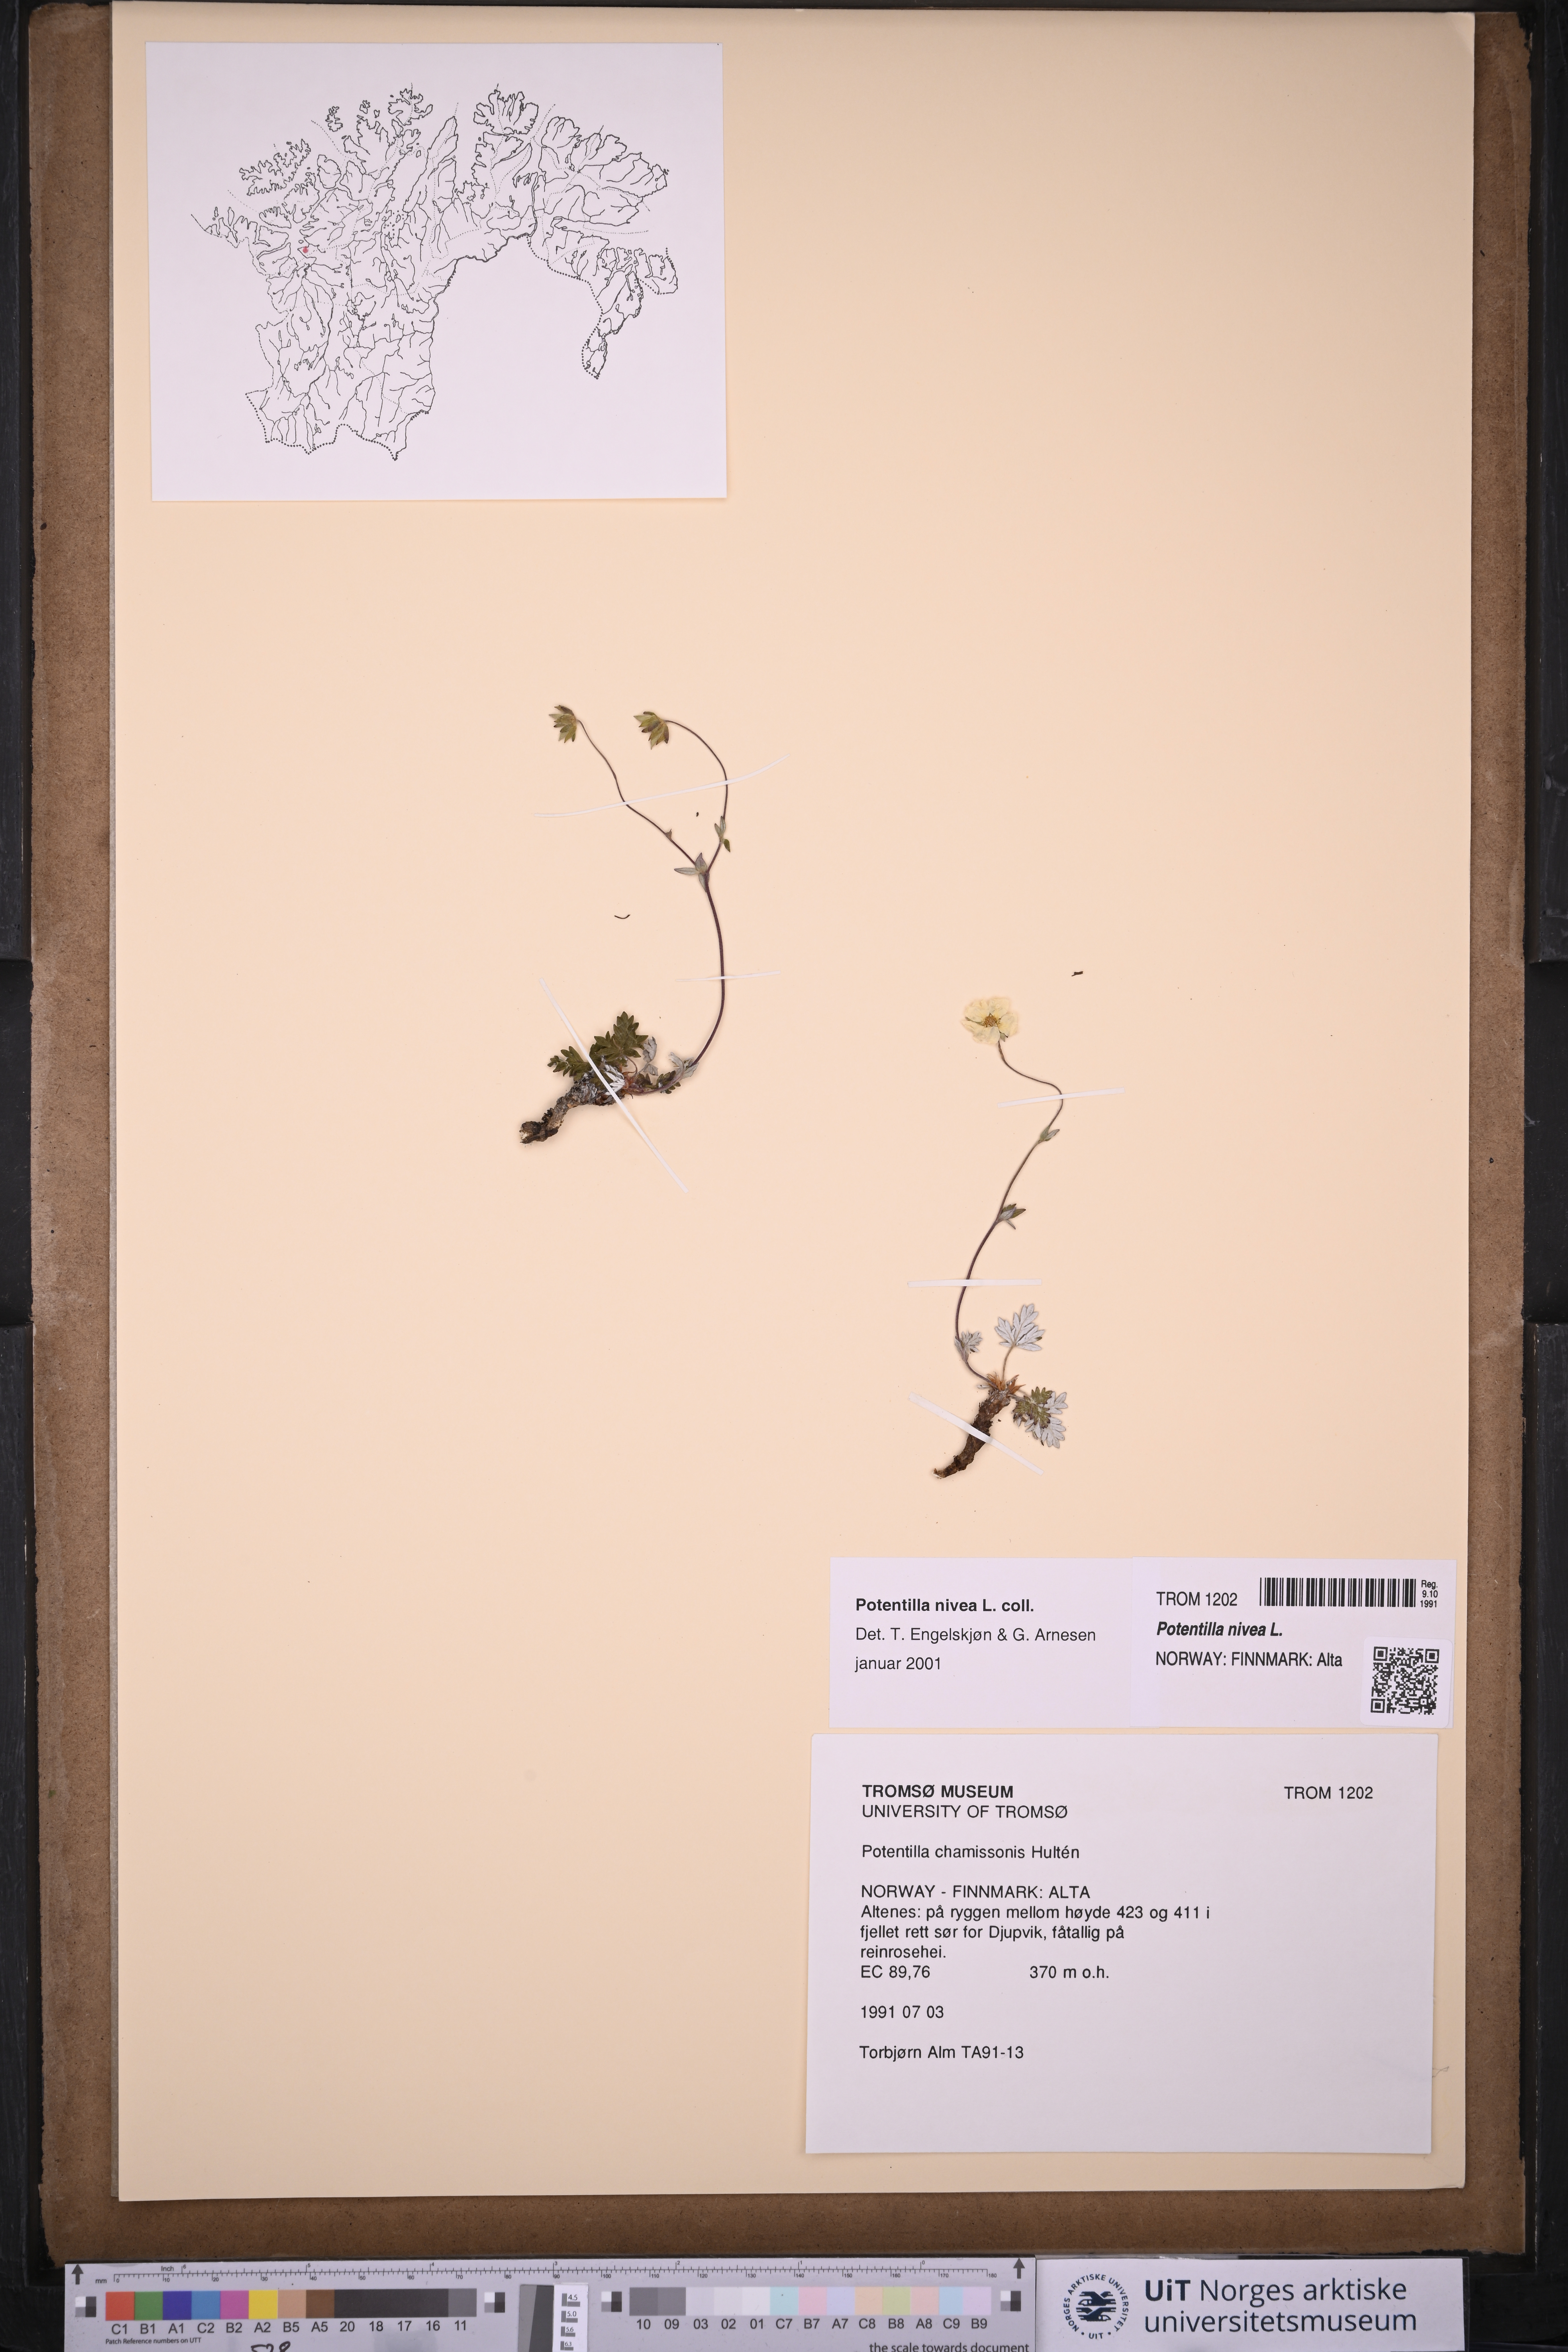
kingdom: Plantae
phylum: Tracheophyta
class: Magnoliopsida
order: Rosales
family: Rosaceae
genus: Potentilla
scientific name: Potentilla arenosa
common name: Bluff cinquefoil
